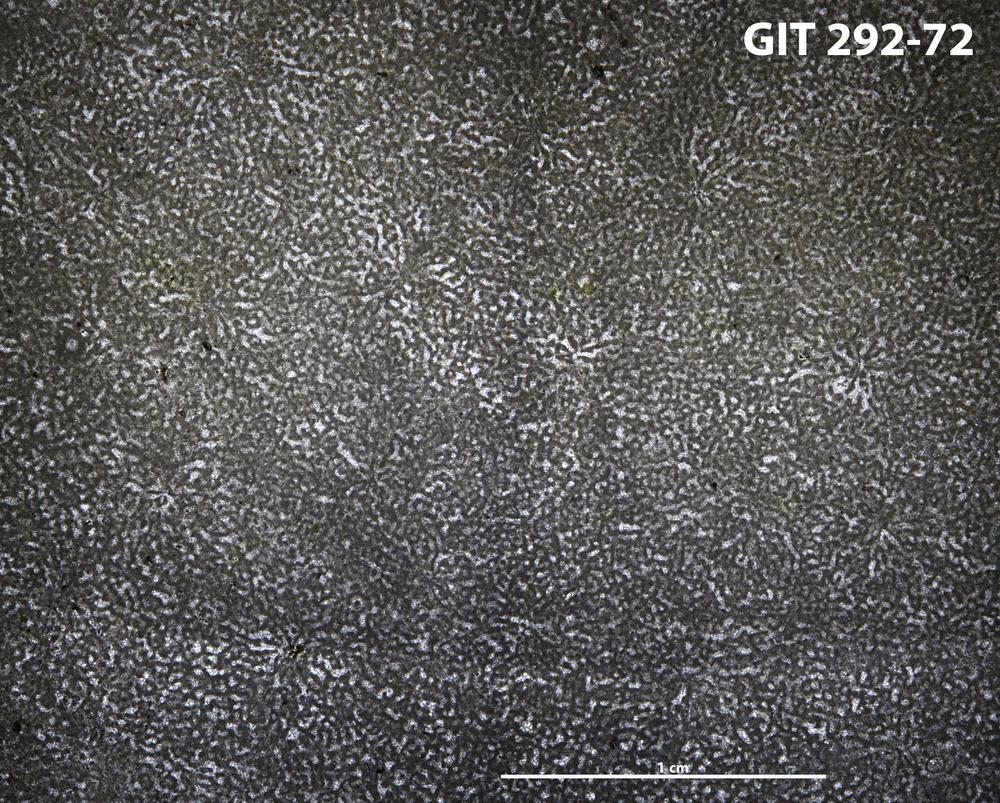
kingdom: Animalia
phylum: Porifera
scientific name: Porifera
